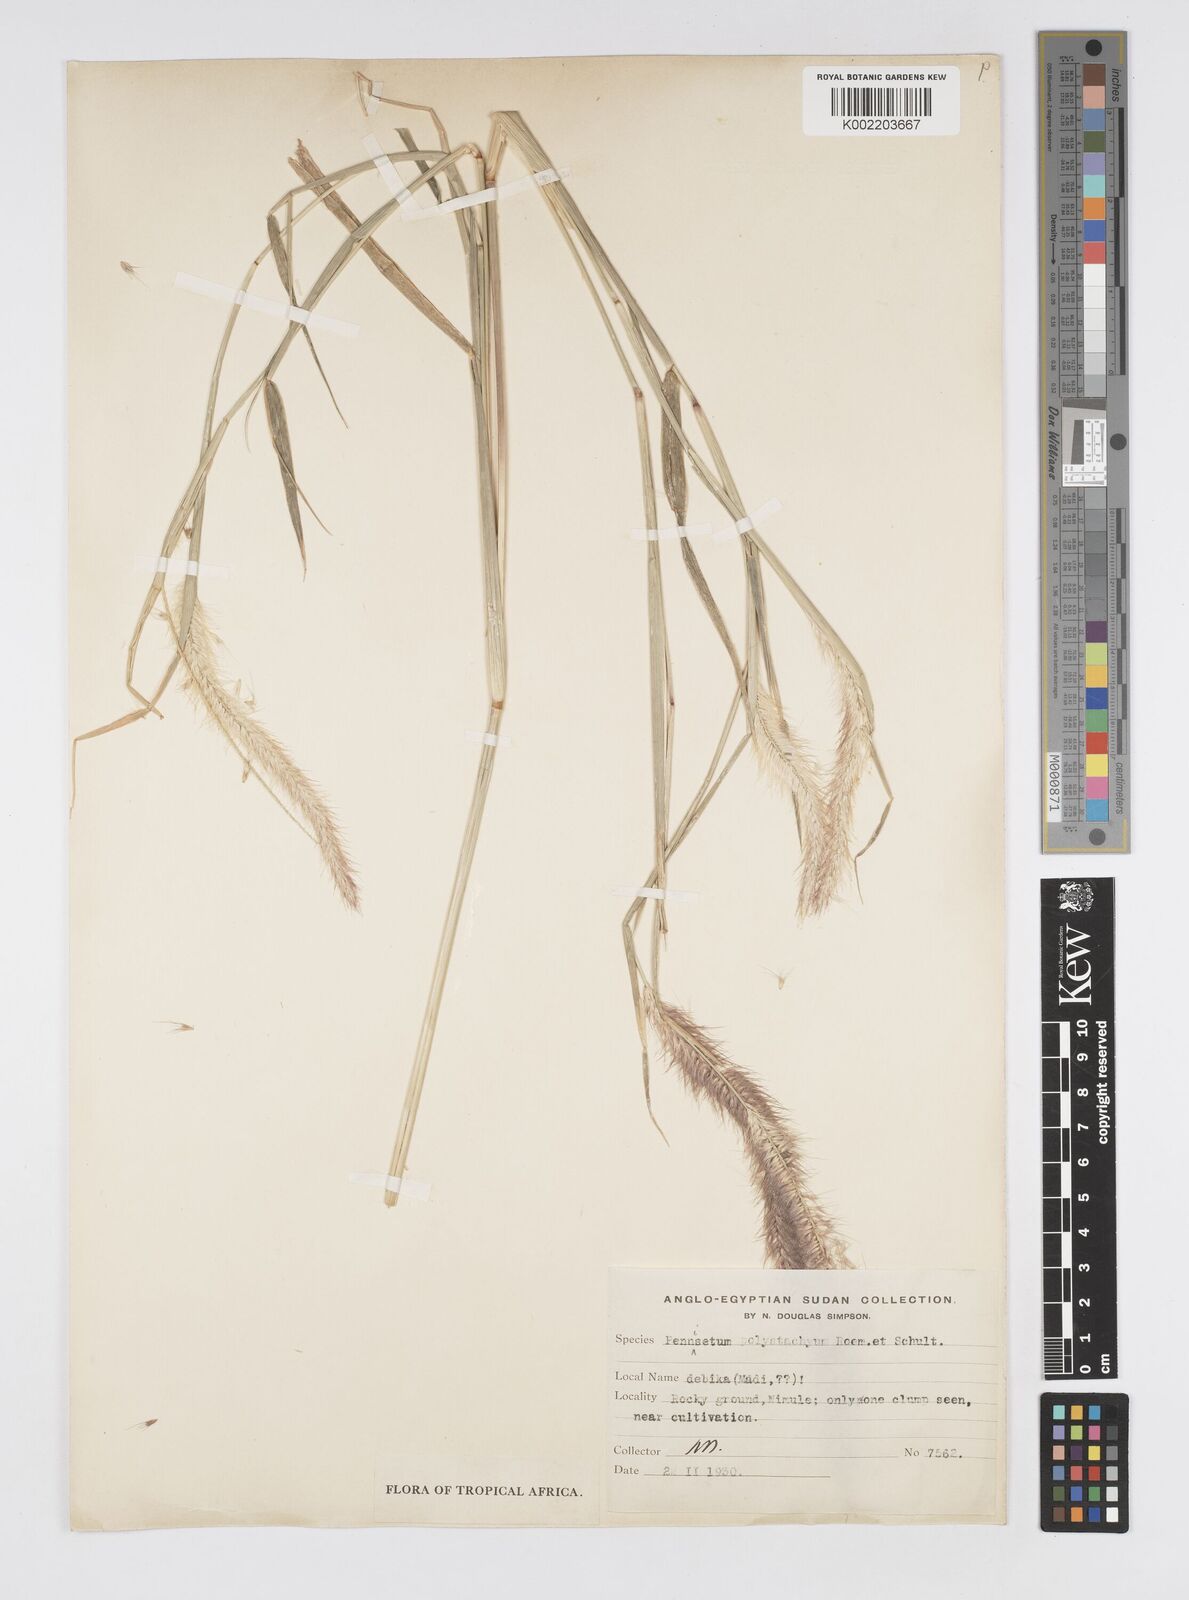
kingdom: Plantae
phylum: Tracheophyta
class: Liliopsida
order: Poales
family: Poaceae
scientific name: Poaceae
